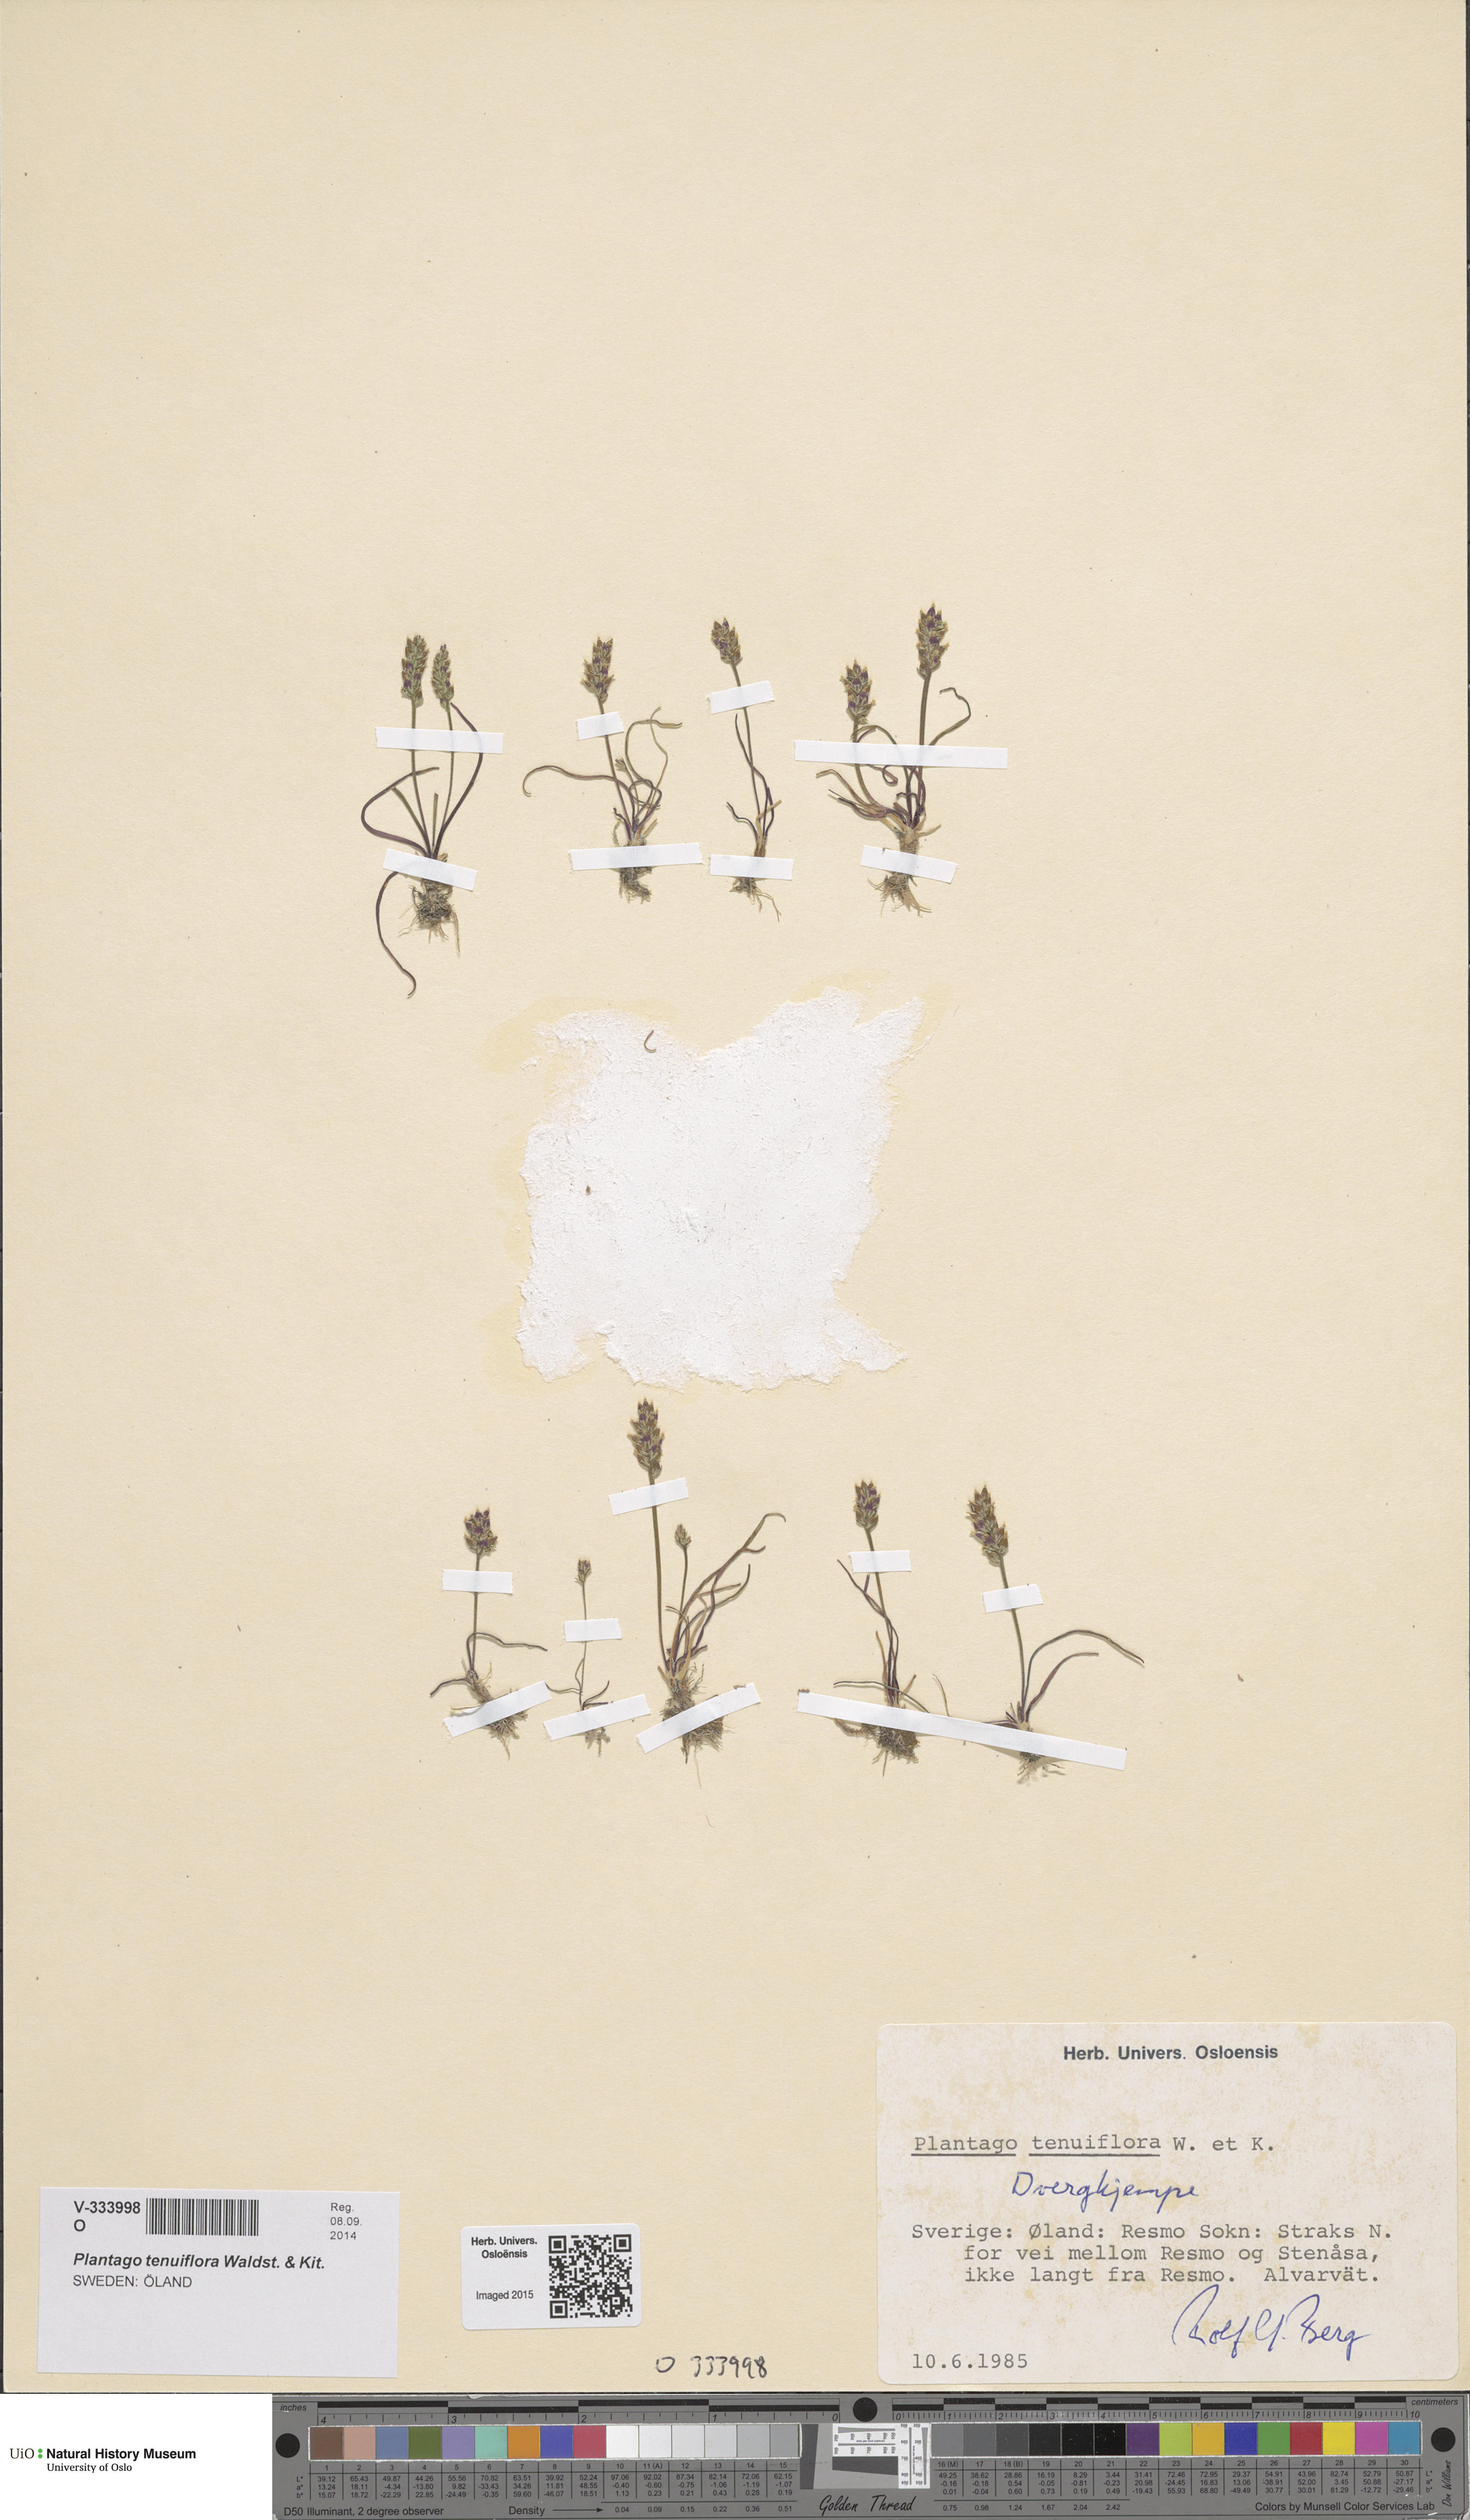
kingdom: Plantae
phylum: Tracheophyta
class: Magnoliopsida
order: Lamiales
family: Plantaginaceae
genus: Plantago
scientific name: Plantago tenuiflora
